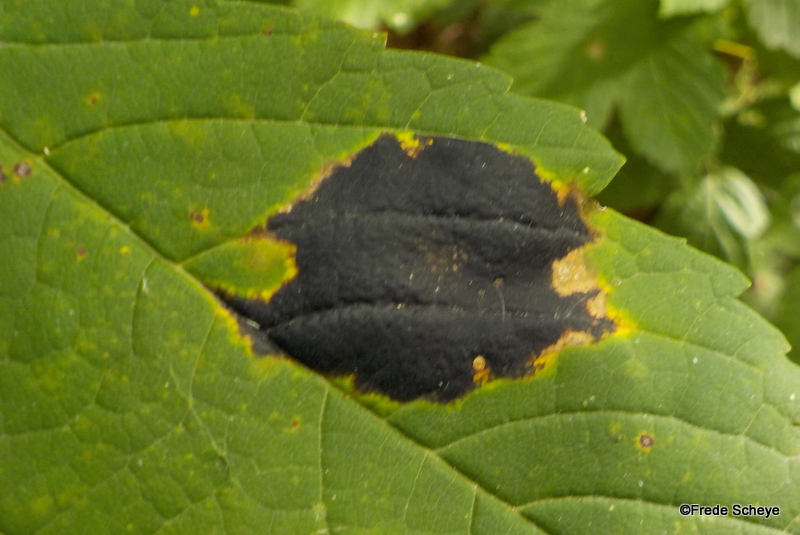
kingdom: Fungi
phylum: Ascomycota
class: Leotiomycetes
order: Rhytismatales
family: Rhytismataceae
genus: Rhytisma
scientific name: Rhytisma acerinum
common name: ahorn-rynkeplet
